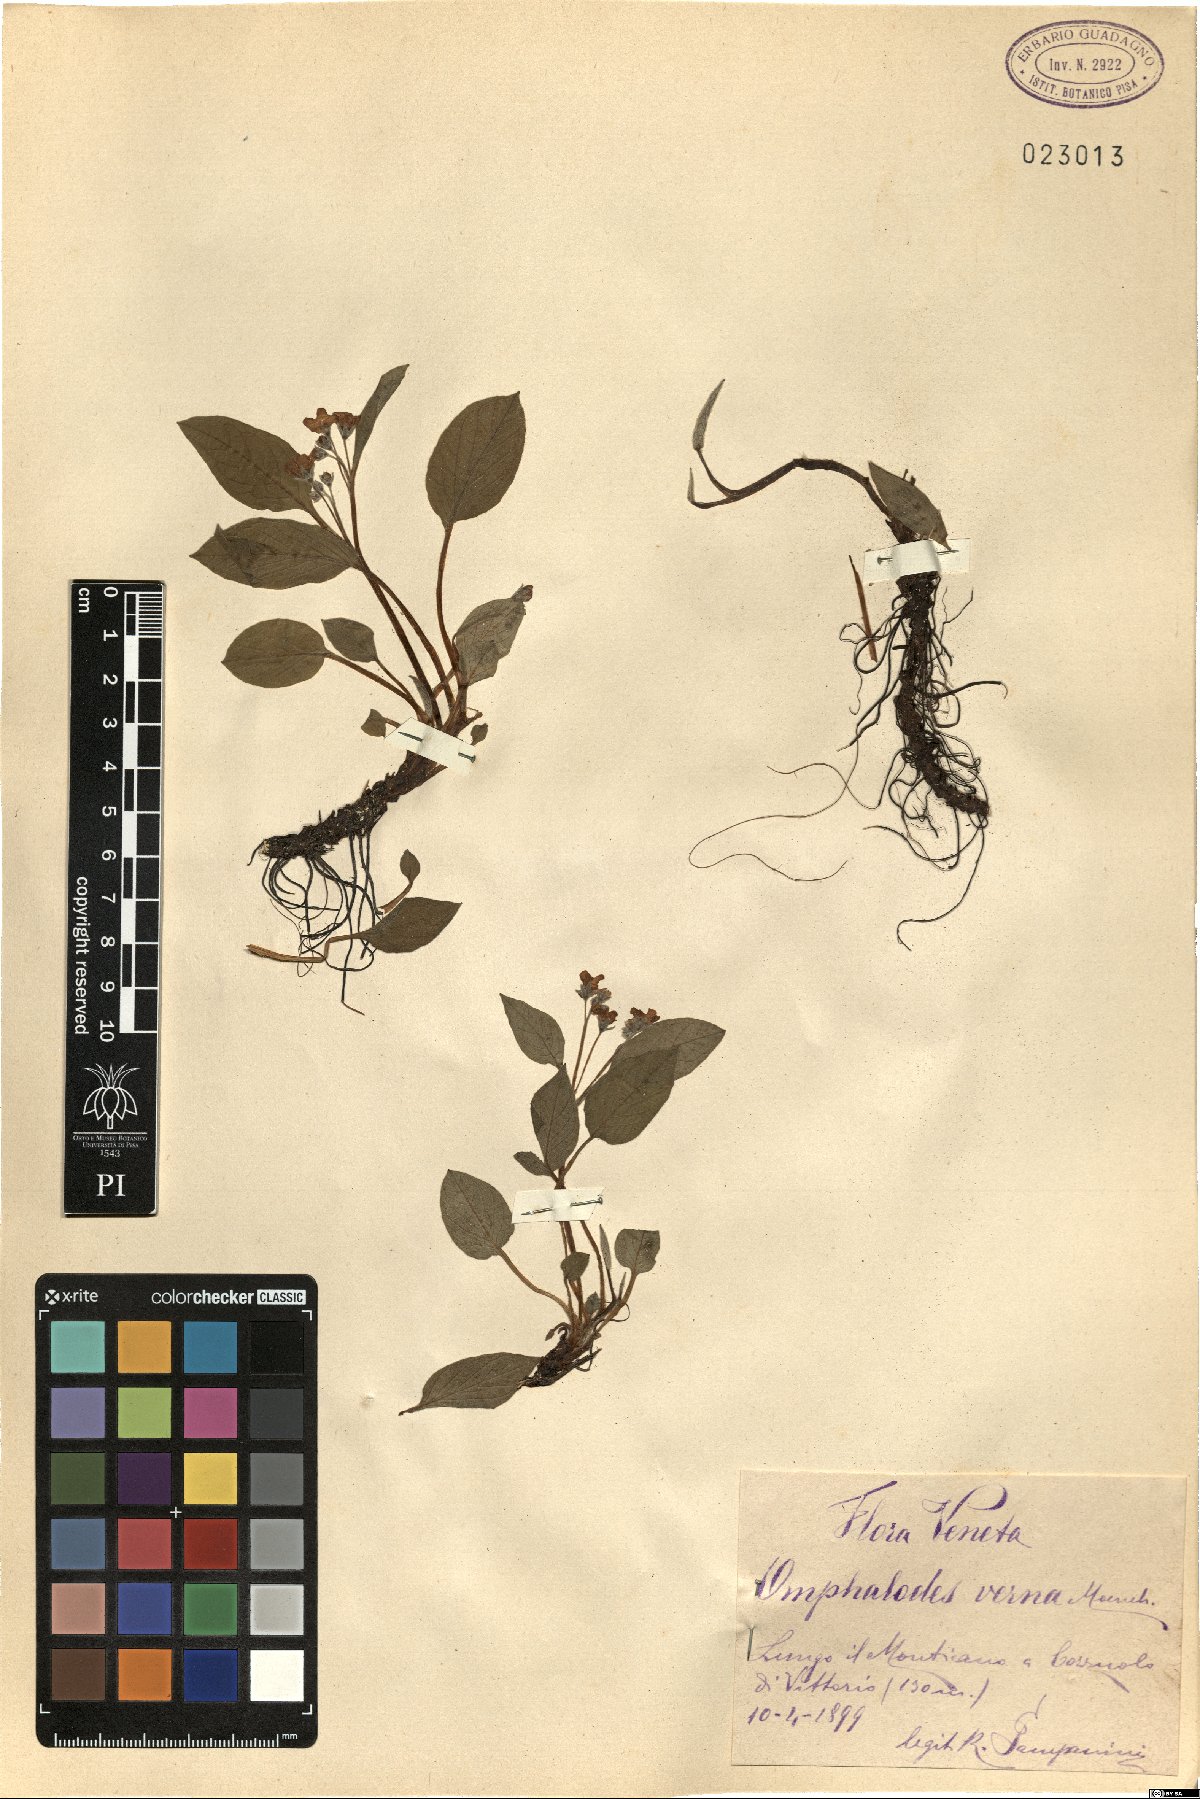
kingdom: Plantae
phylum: Tracheophyta
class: Magnoliopsida
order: Boraginales
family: Boraginaceae
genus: Omphalodes
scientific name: Omphalodes verna
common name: Blue-eyed-mary
